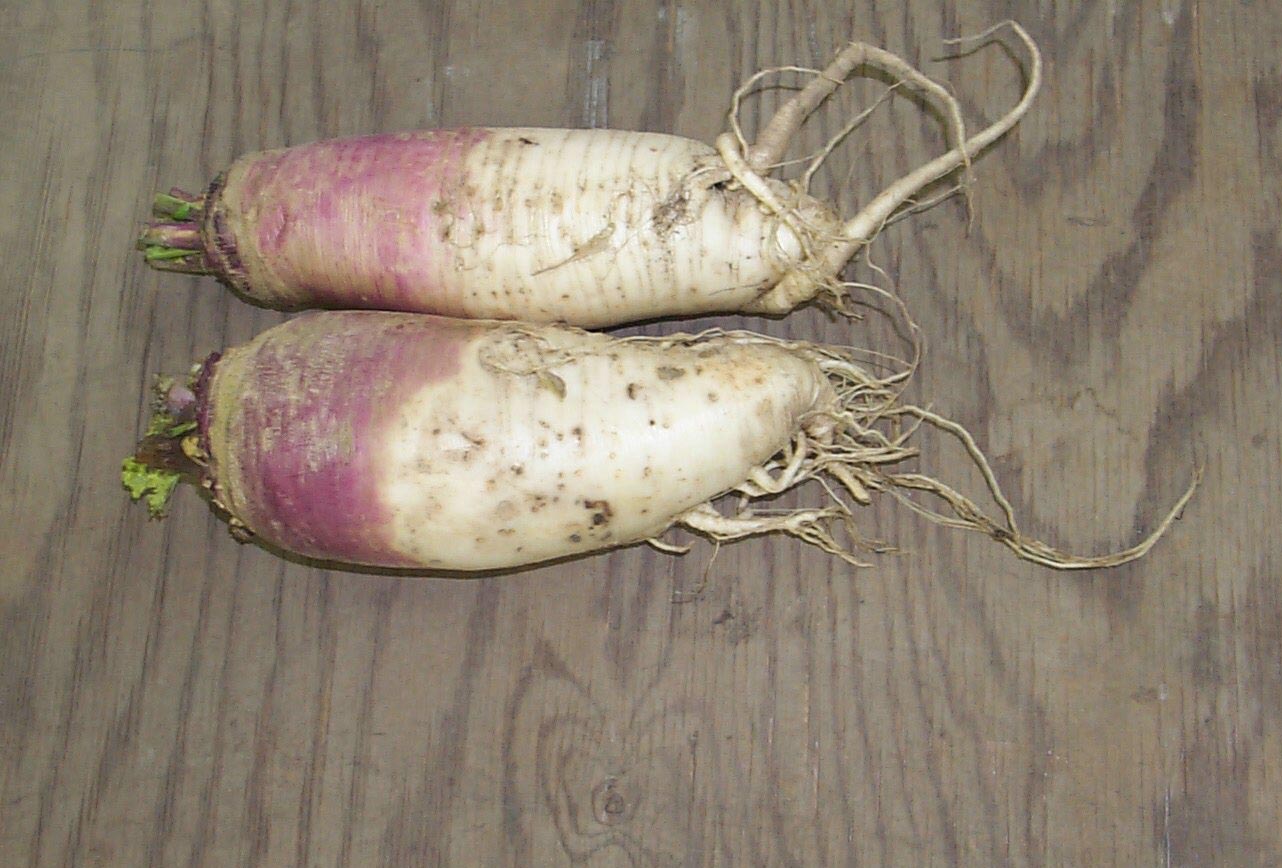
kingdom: Plantae
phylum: Tracheophyta
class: Magnoliopsida
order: Brassicales
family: Brassicaceae
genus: Brassica
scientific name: Brassica rapa
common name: Field mustard
